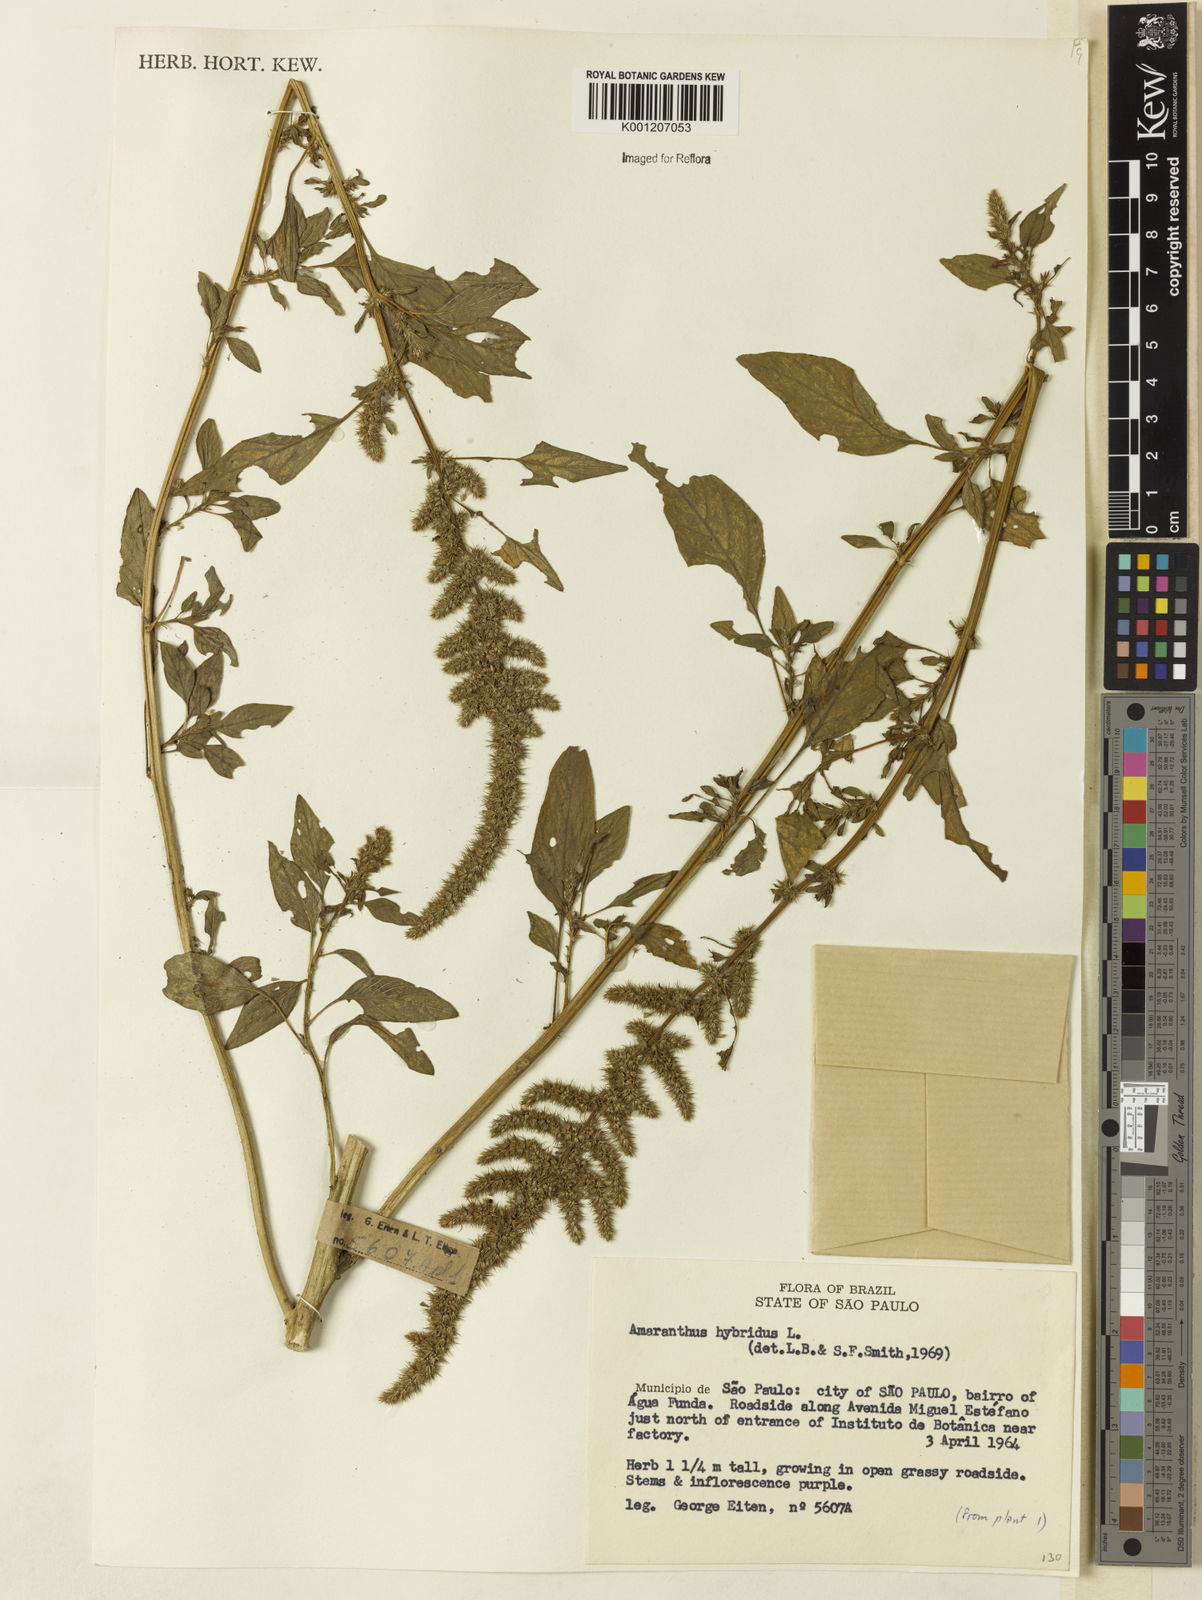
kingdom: Plantae
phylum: Tracheophyta
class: Magnoliopsida
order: Caryophyllales
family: Amaranthaceae
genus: Amaranthus
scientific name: Amaranthus hybridus
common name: Green amaranth
